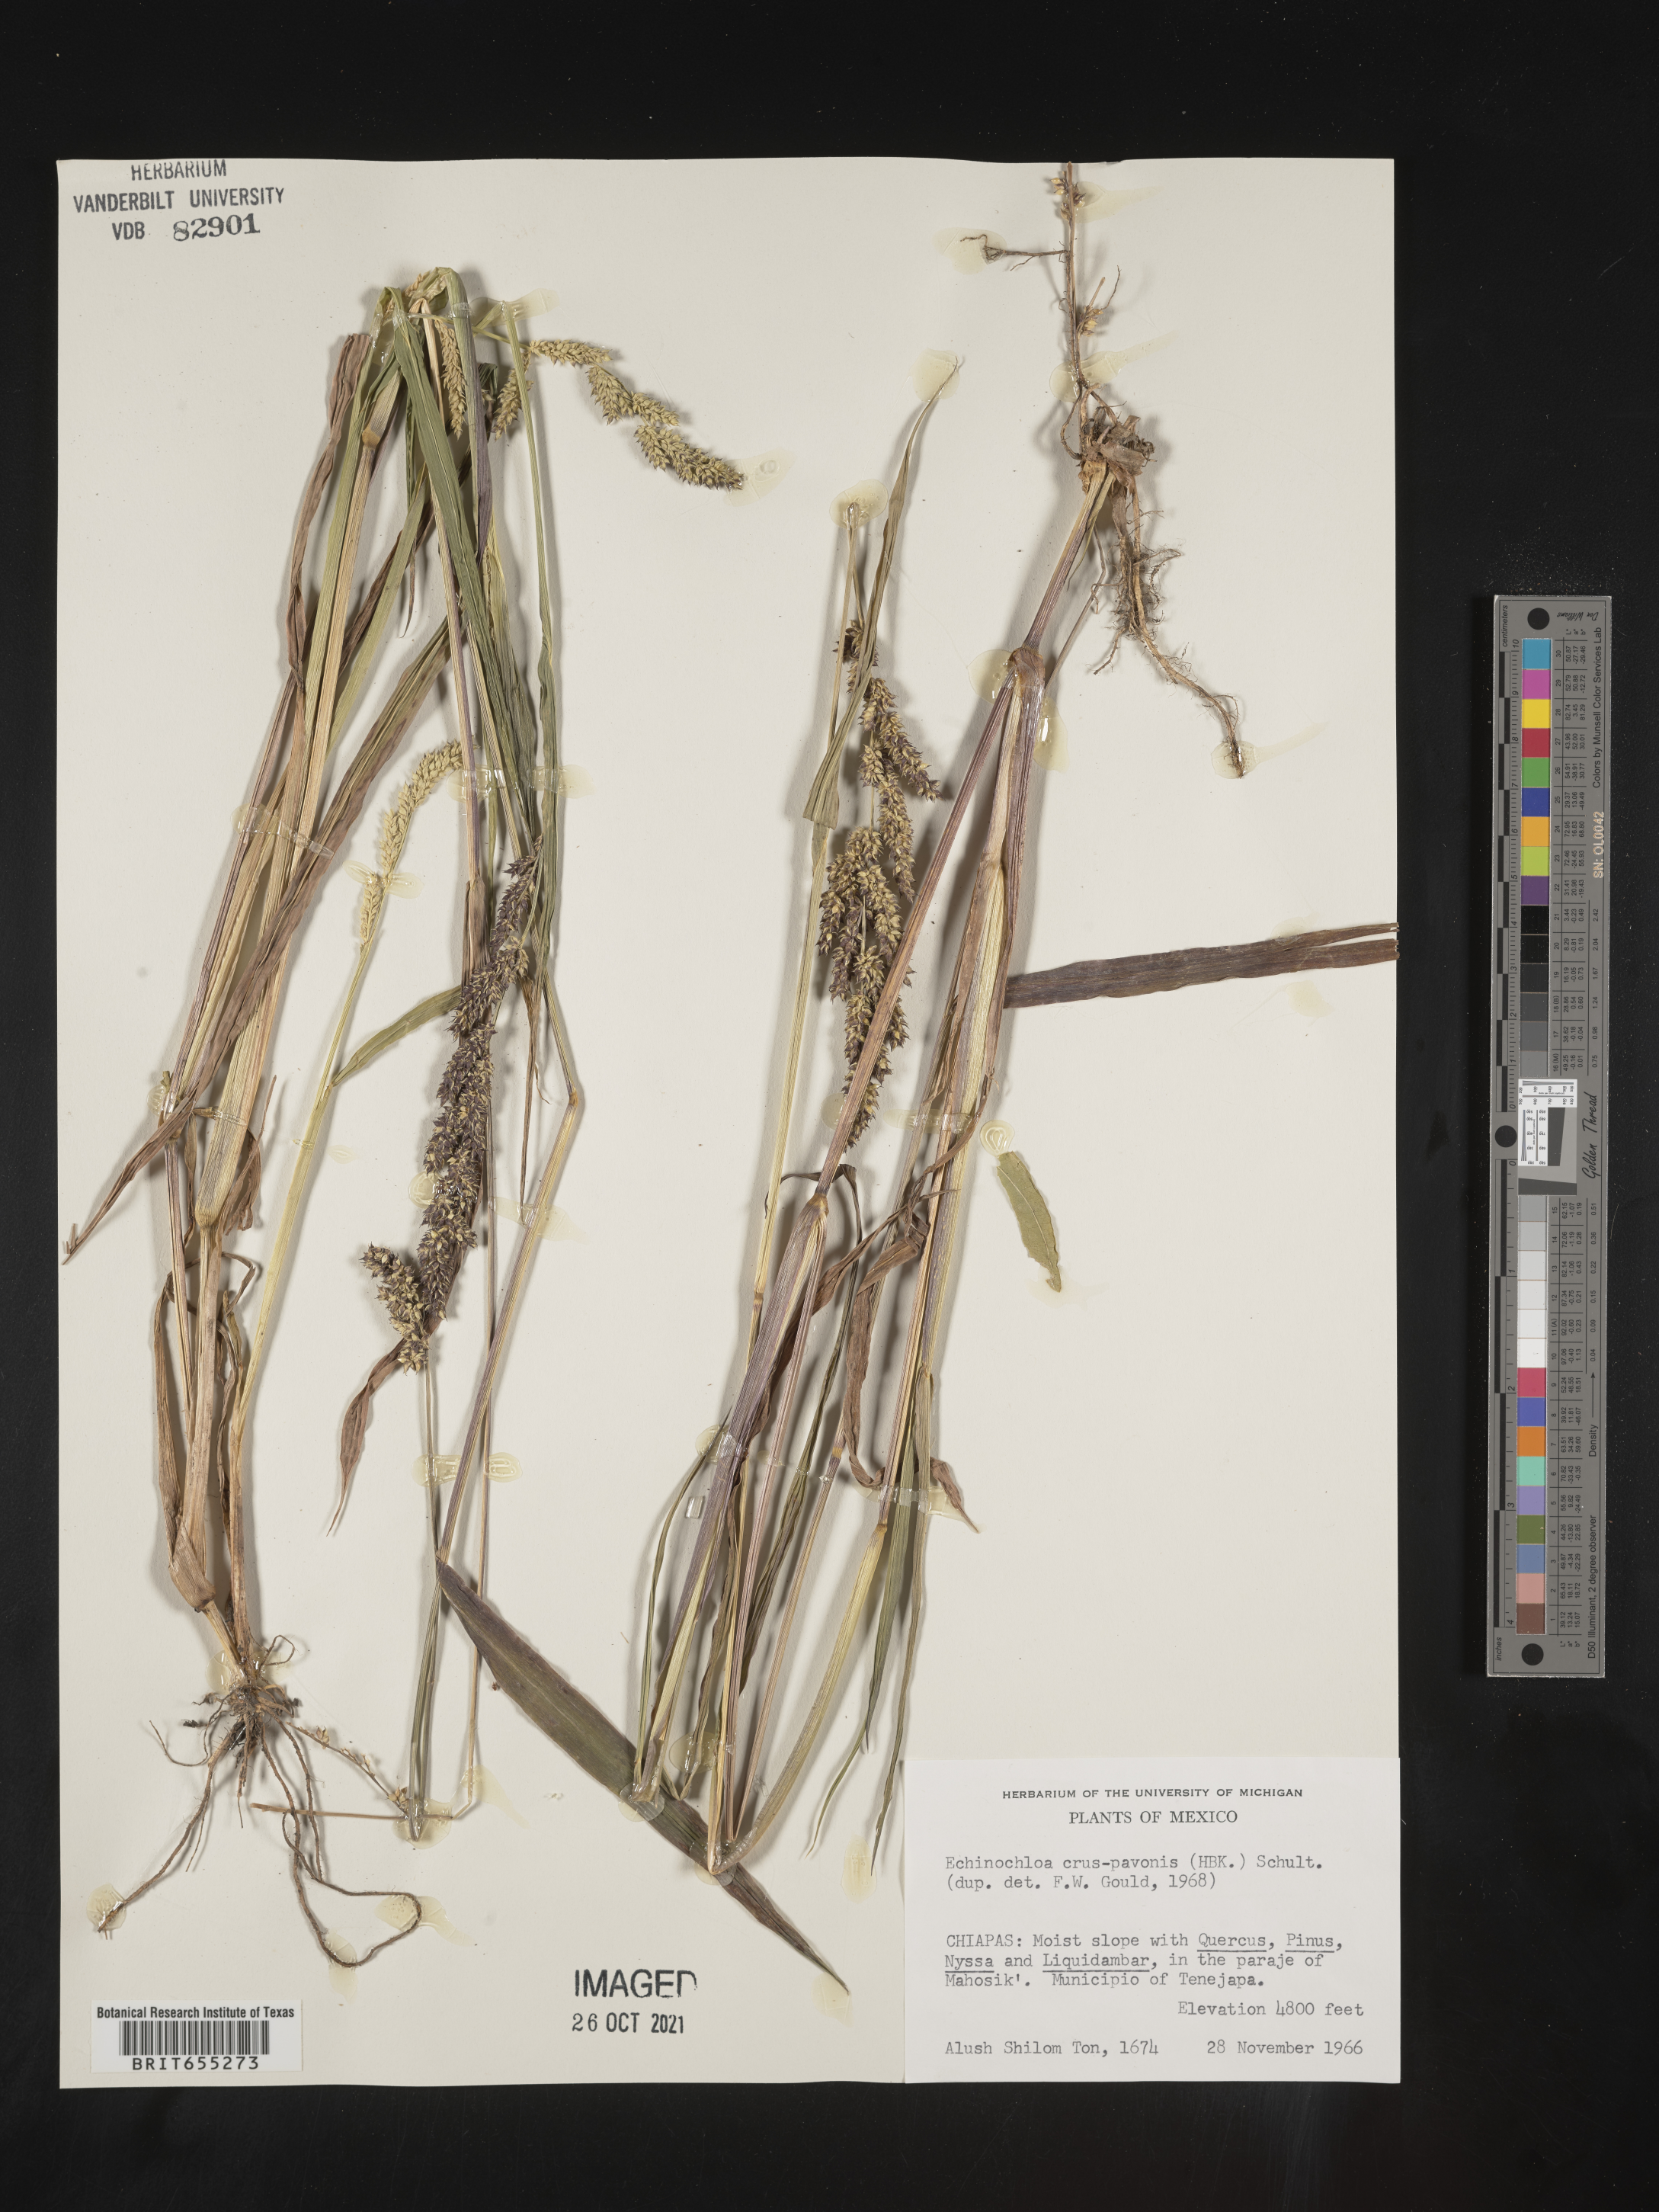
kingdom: Plantae
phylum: Tracheophyta
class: Liliopsida
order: Poales
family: Poaceae
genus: Echinochloa
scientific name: Echinochloa
